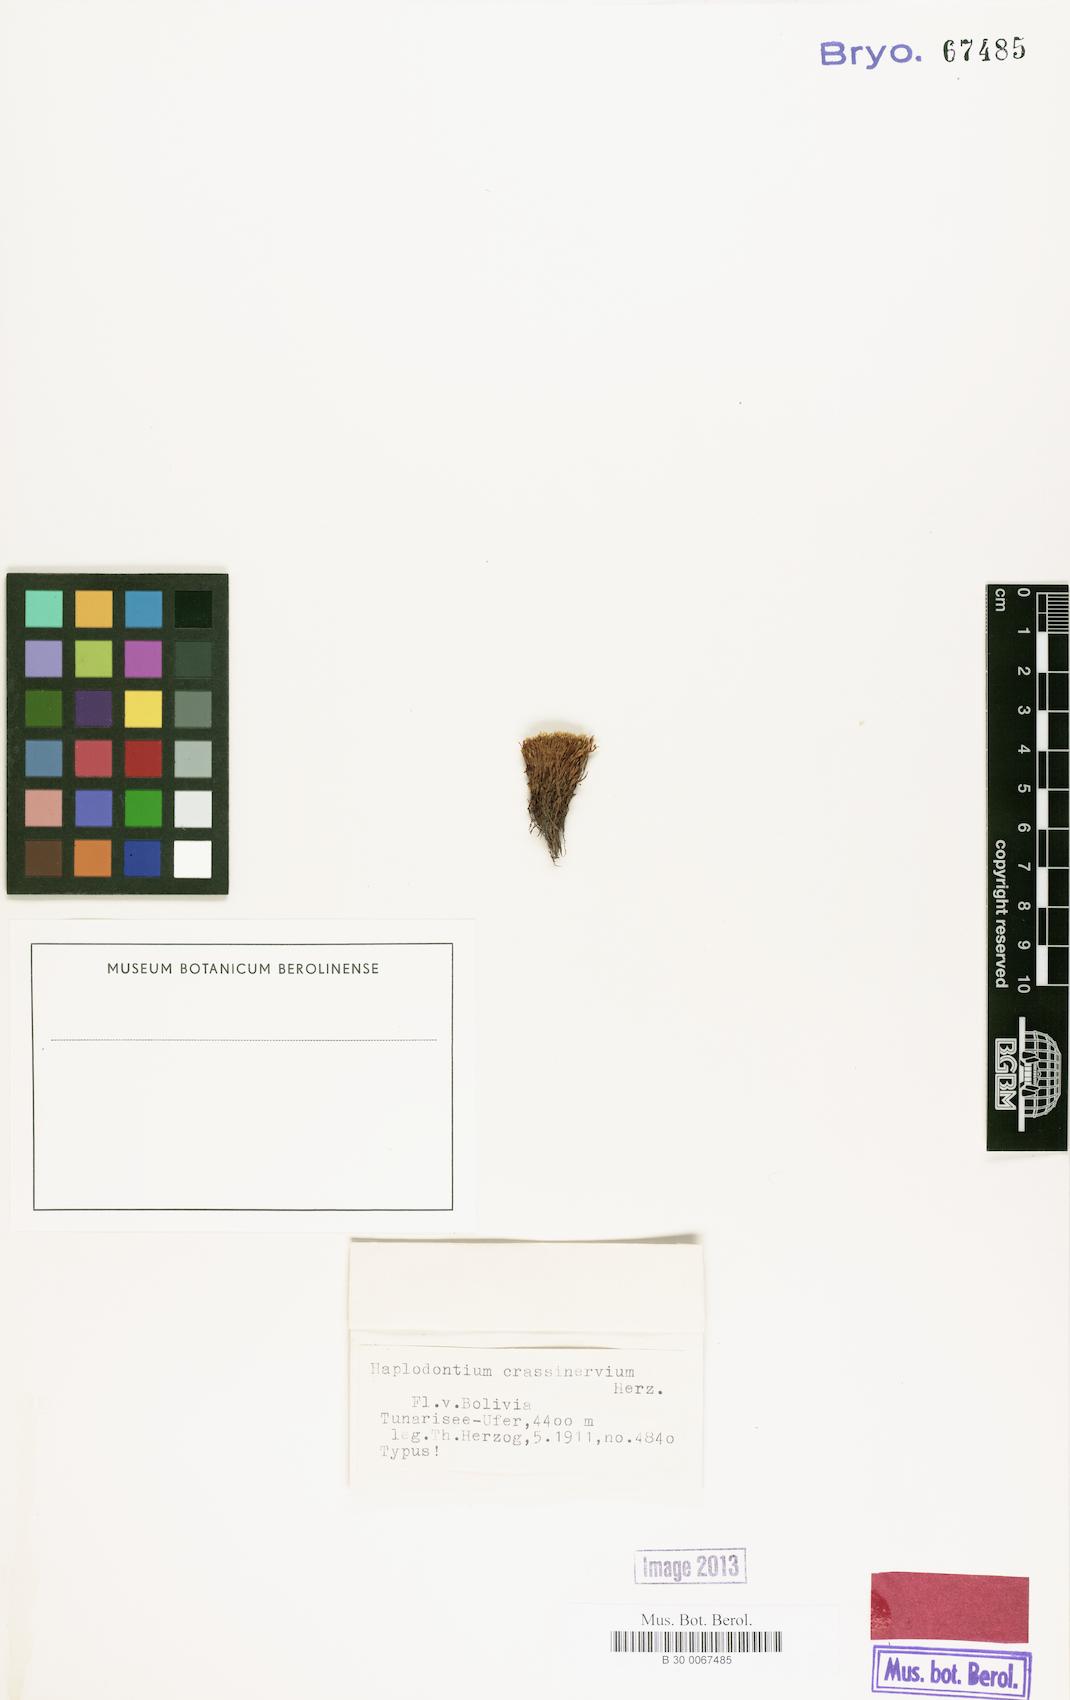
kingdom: Plantae
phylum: Bryophyta
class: Bryopsida
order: Bryales
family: Bryaceae
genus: Haplodontium
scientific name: Haplodontium crassinervium
